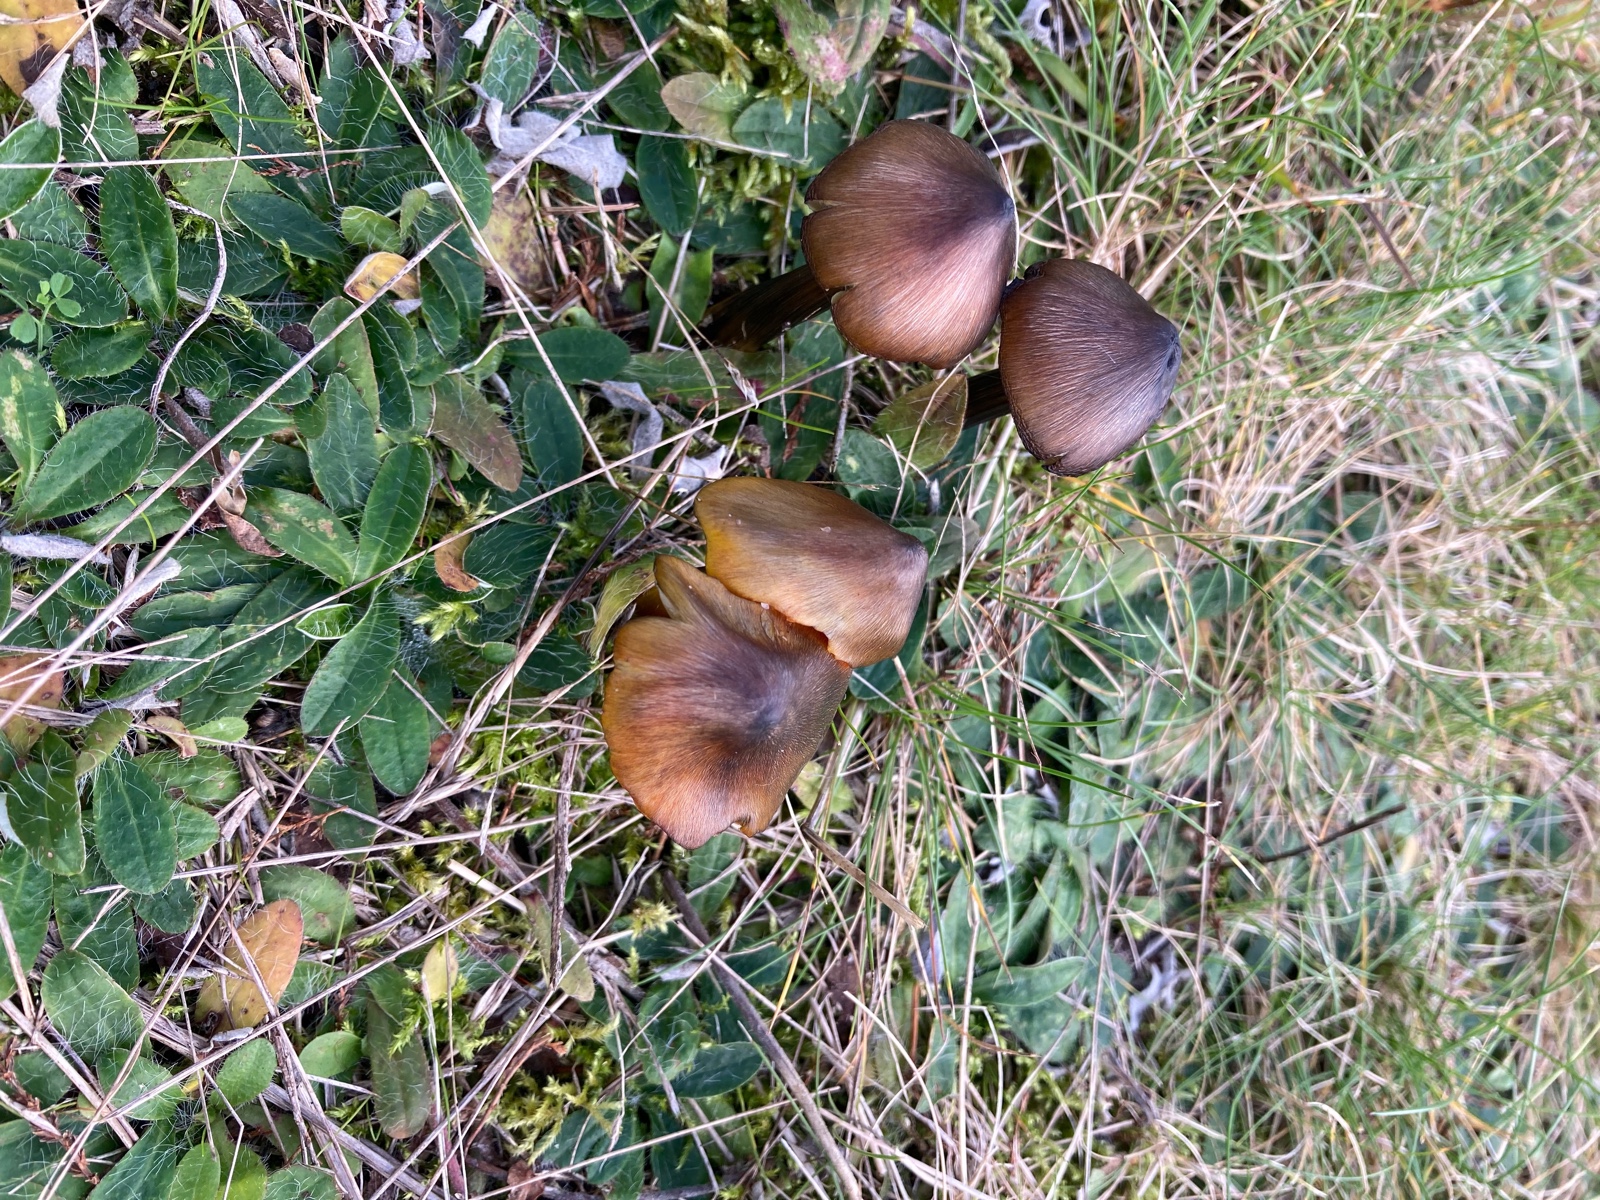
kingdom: Fungi
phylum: Basidiomycota
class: Agaricomycetes
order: Agaricales
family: Hygrophoraceae
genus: Hygrocybe
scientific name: Hygrocybe conica
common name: kegle-vokshat
